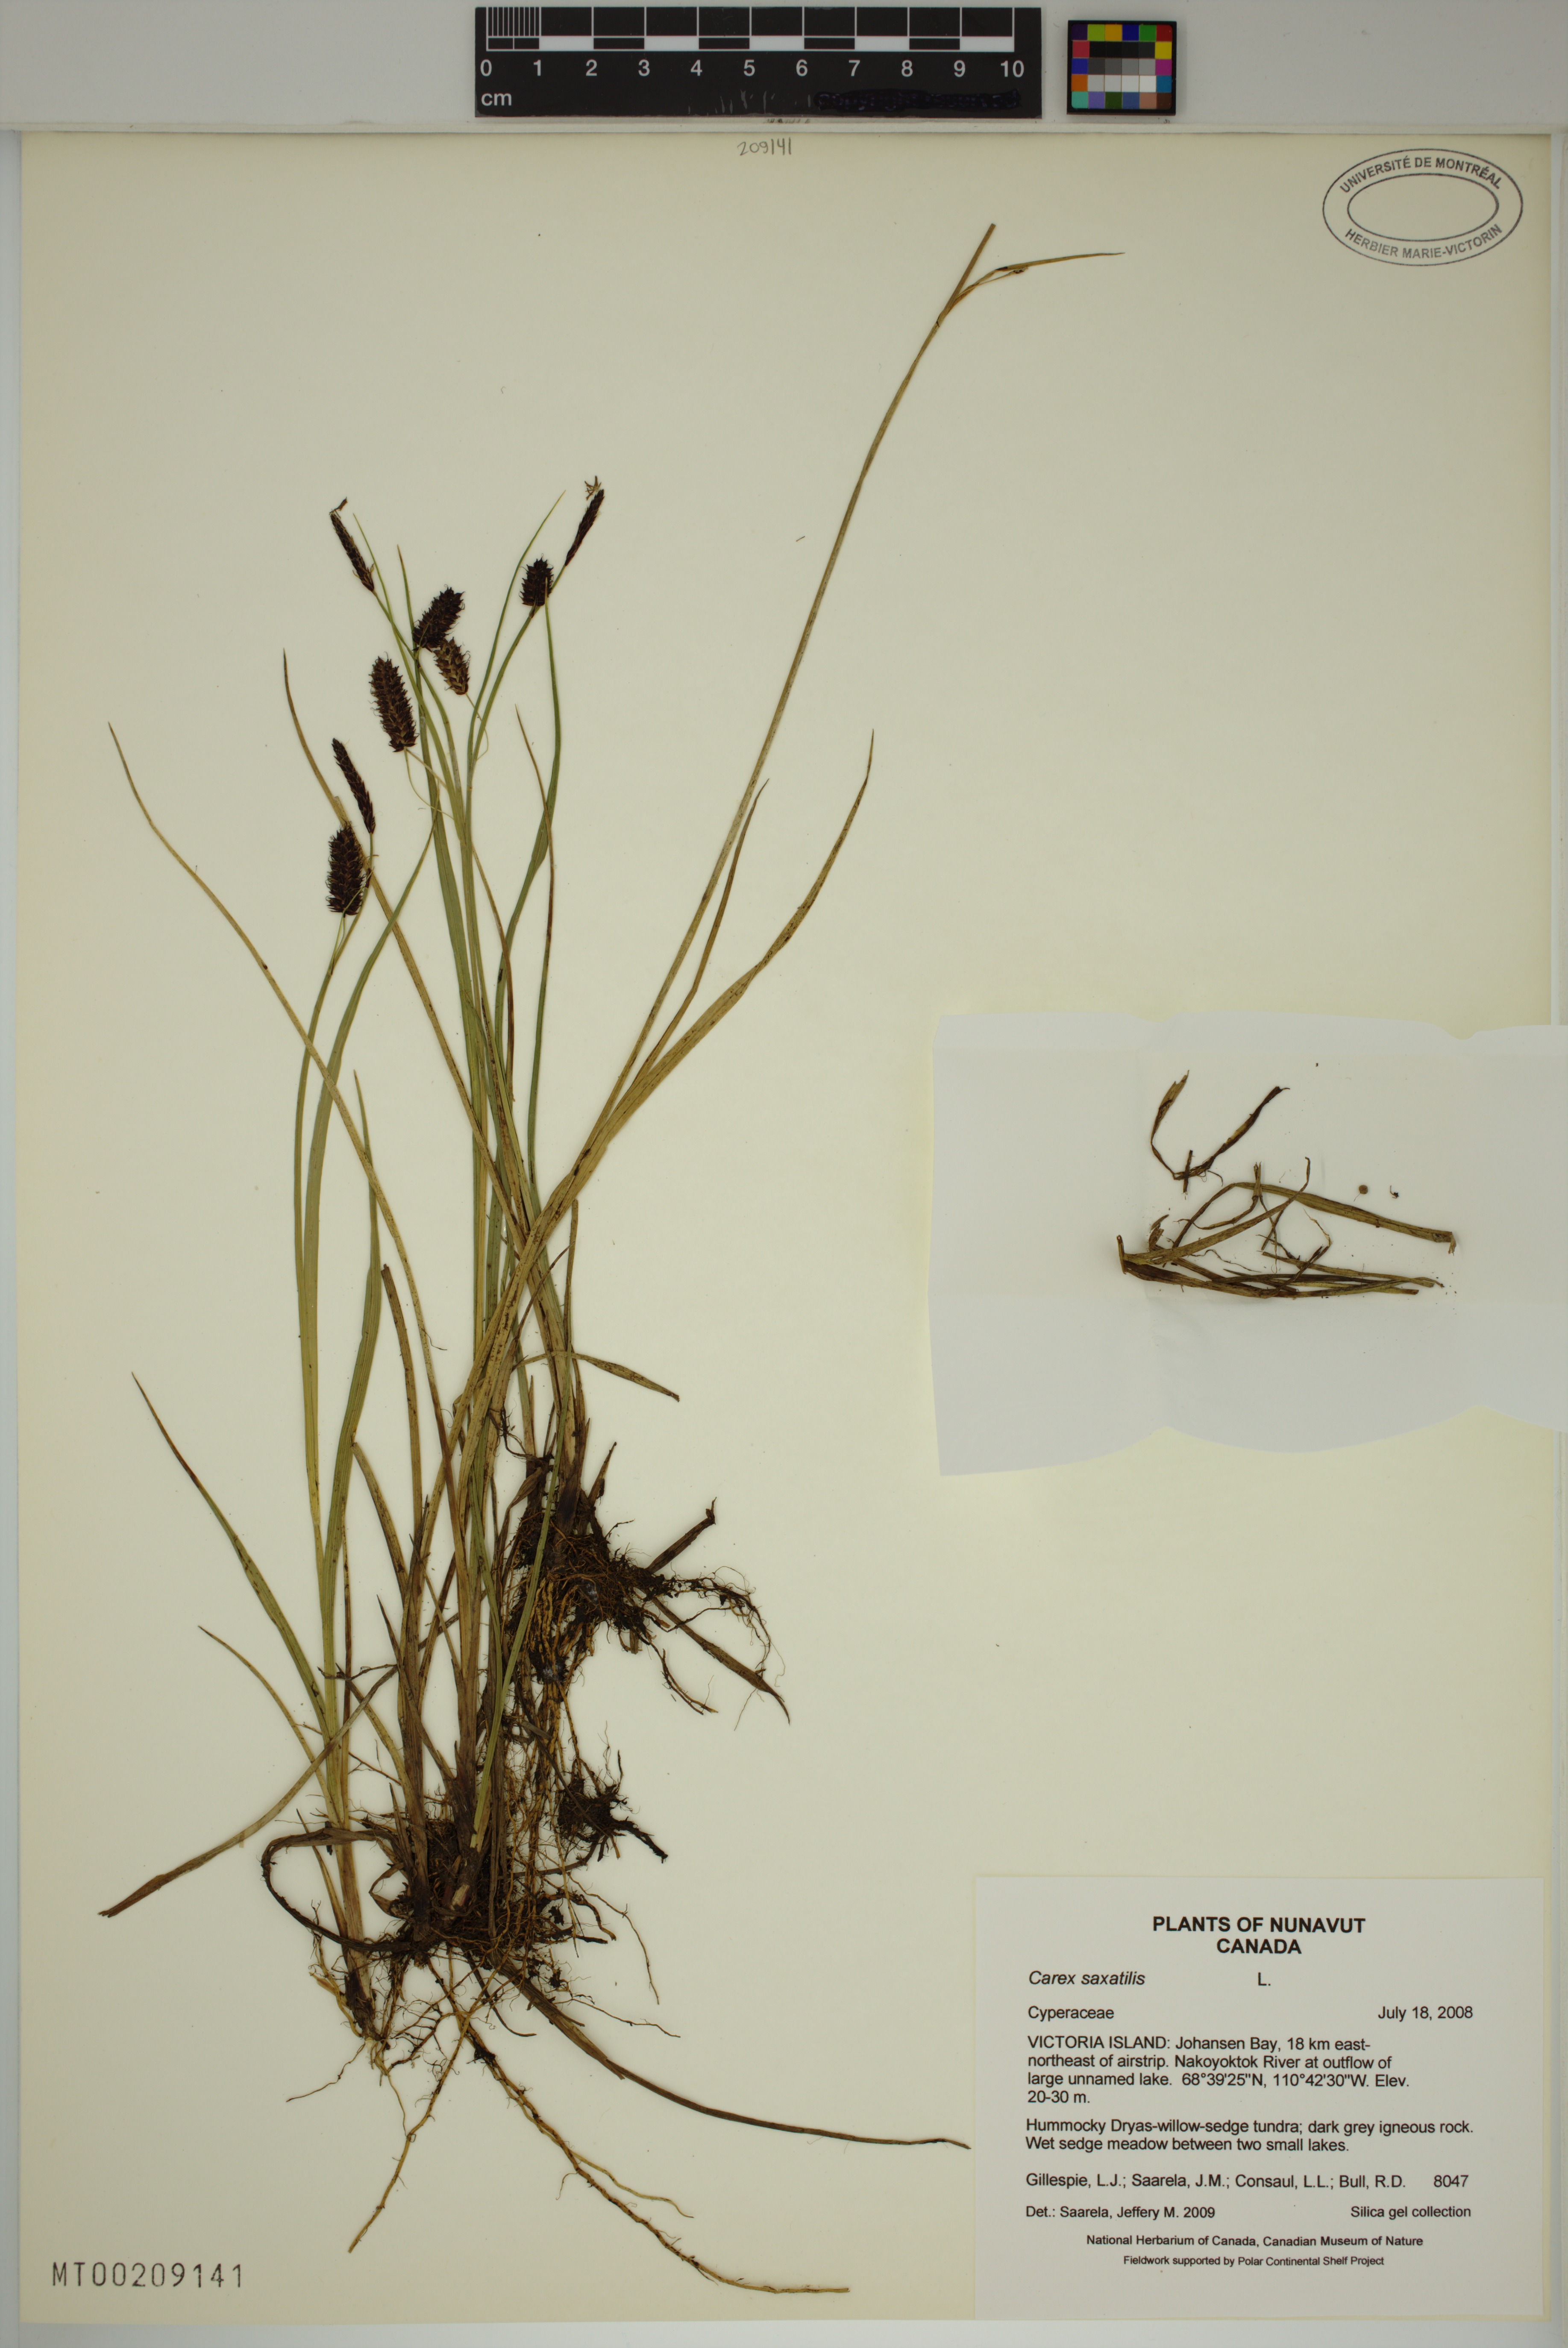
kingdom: Plantae
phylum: Tracheophyta
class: Liliopsida
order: Poales
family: Cyperaceae
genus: Carex
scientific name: Carex saxatilis
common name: Russet sedge
